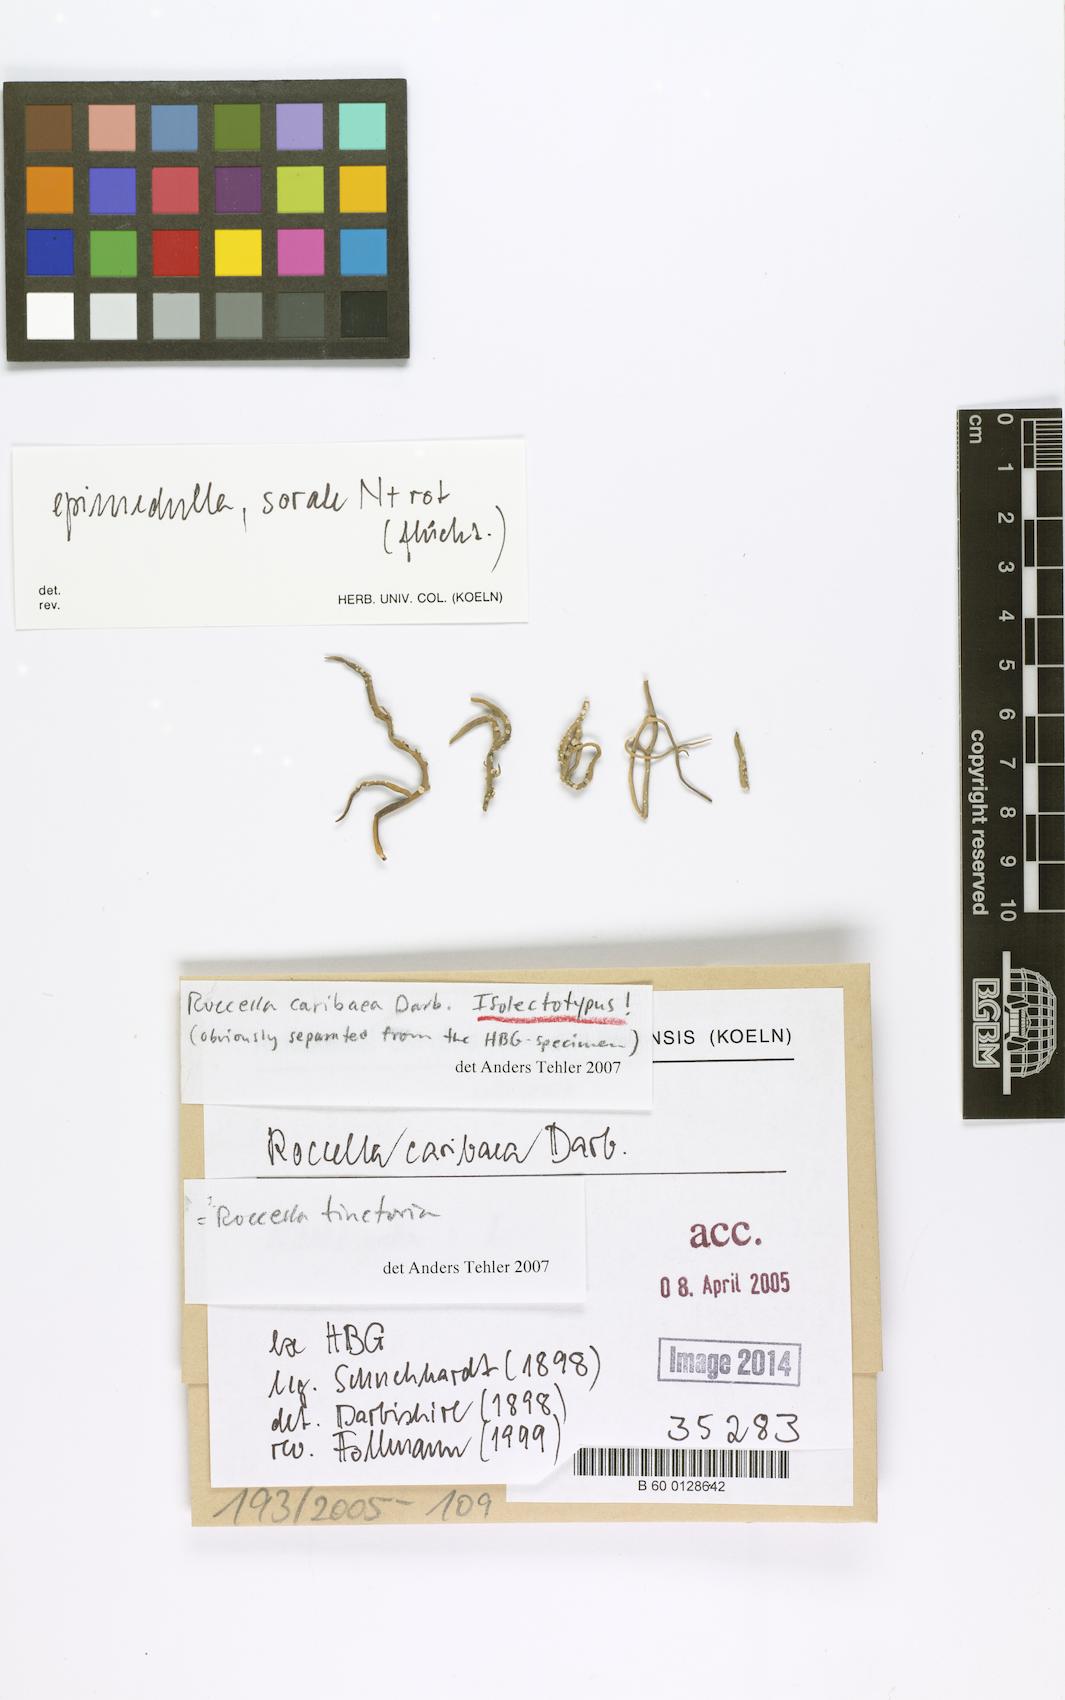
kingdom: Fungi
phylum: Ascomycota
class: Arthoniomycetes
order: Arthoniales
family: Roccellaceae
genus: Roccella
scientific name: Roccella
